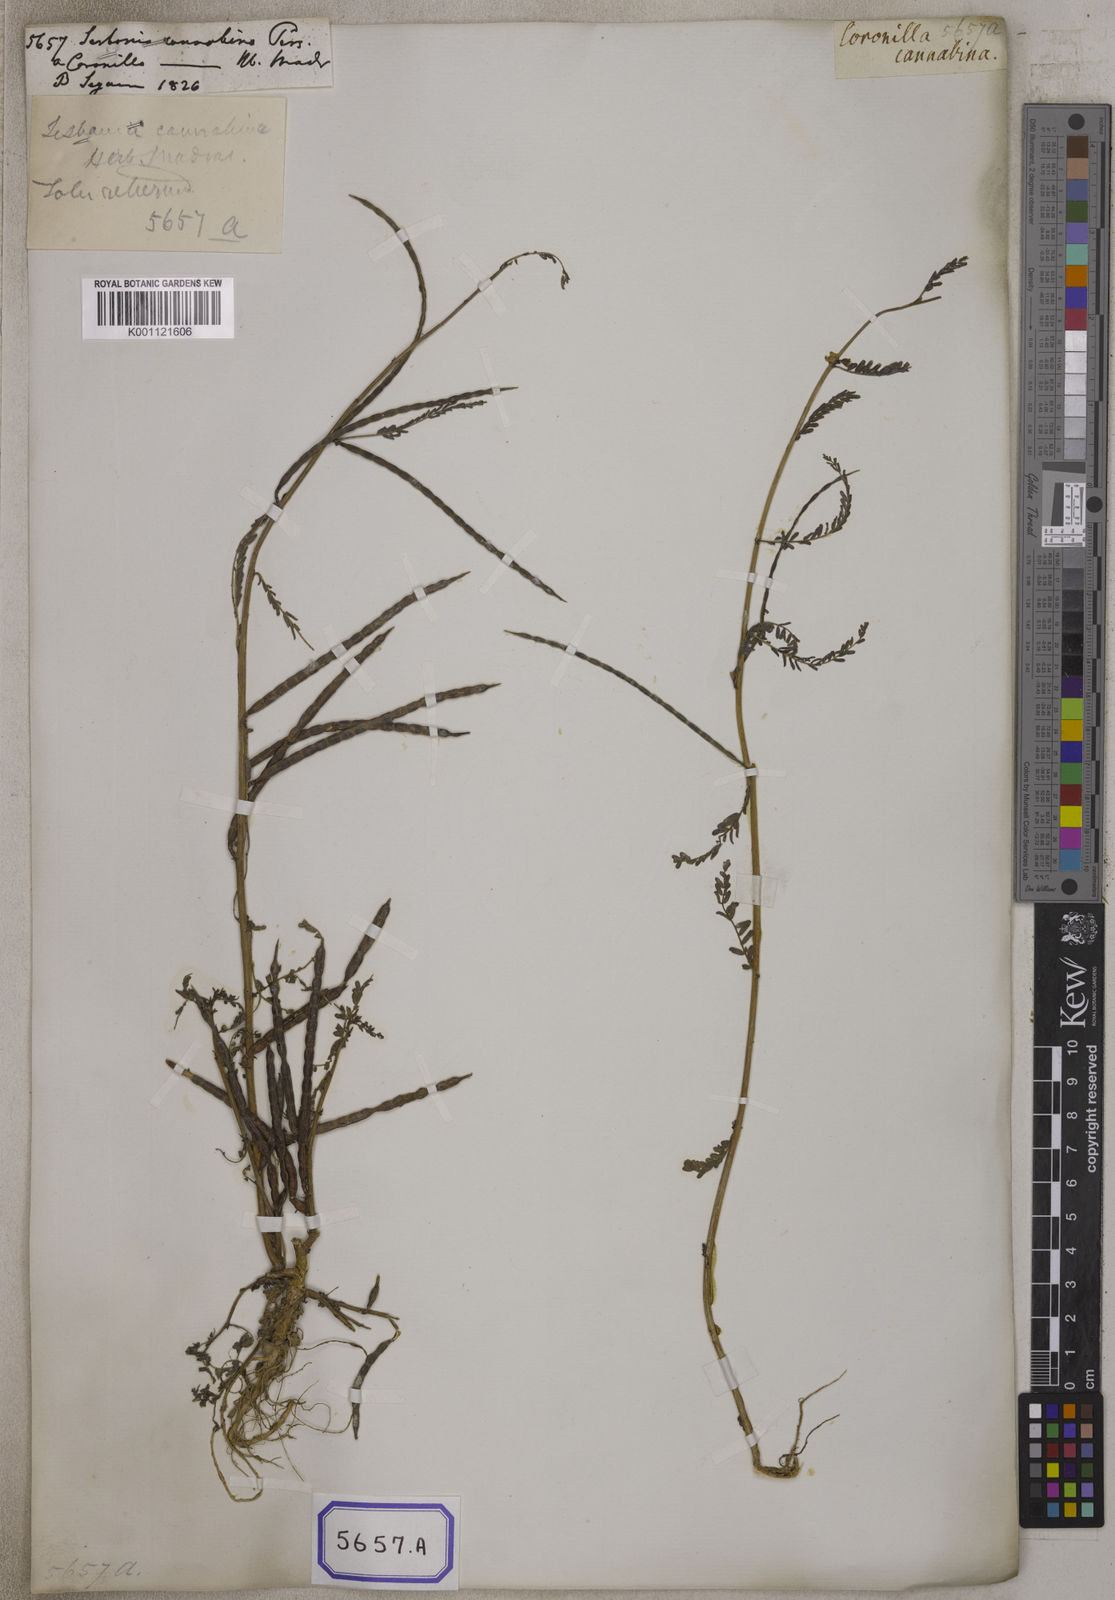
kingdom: Plantae
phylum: Tracheophyta
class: Magnoliopsida
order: Fabales
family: Fabaceae
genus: Sesbania
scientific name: Sesbania
